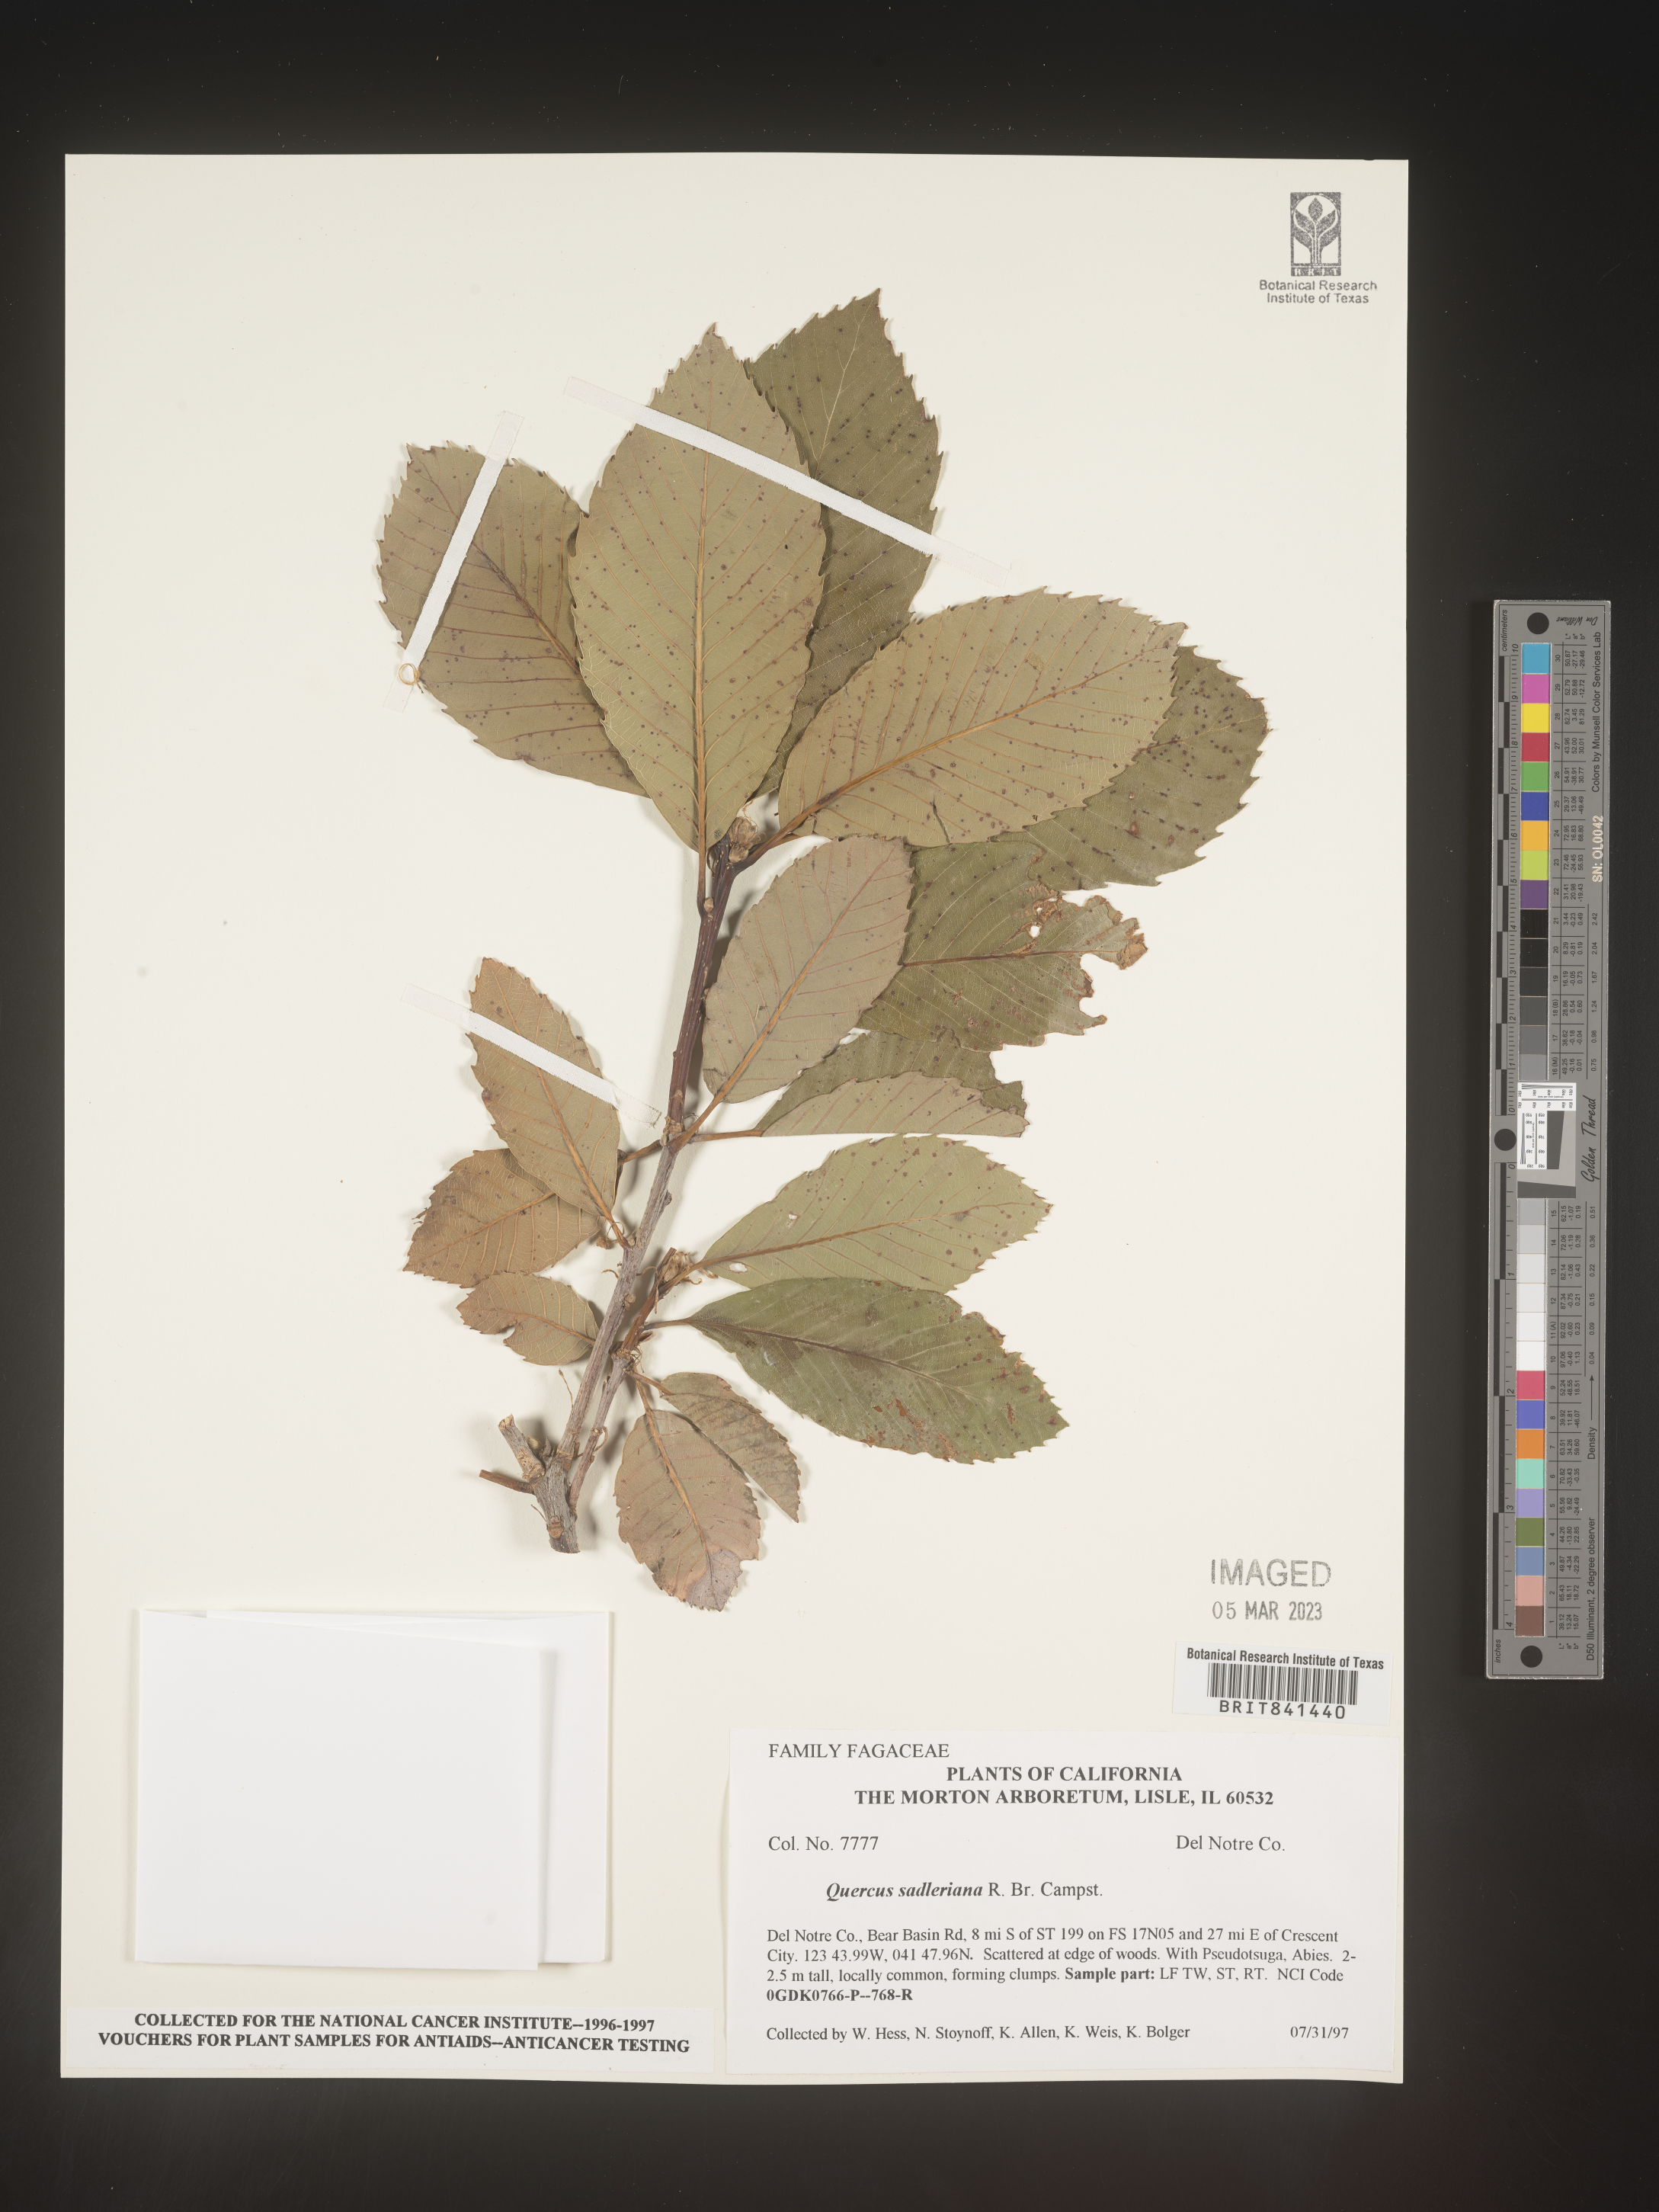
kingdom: Plantae
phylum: Tracheophyta
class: Magnoliopsida
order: Fagales
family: Fagaceae
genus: Quercus
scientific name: Quercus sadleriana
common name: Deer oak
